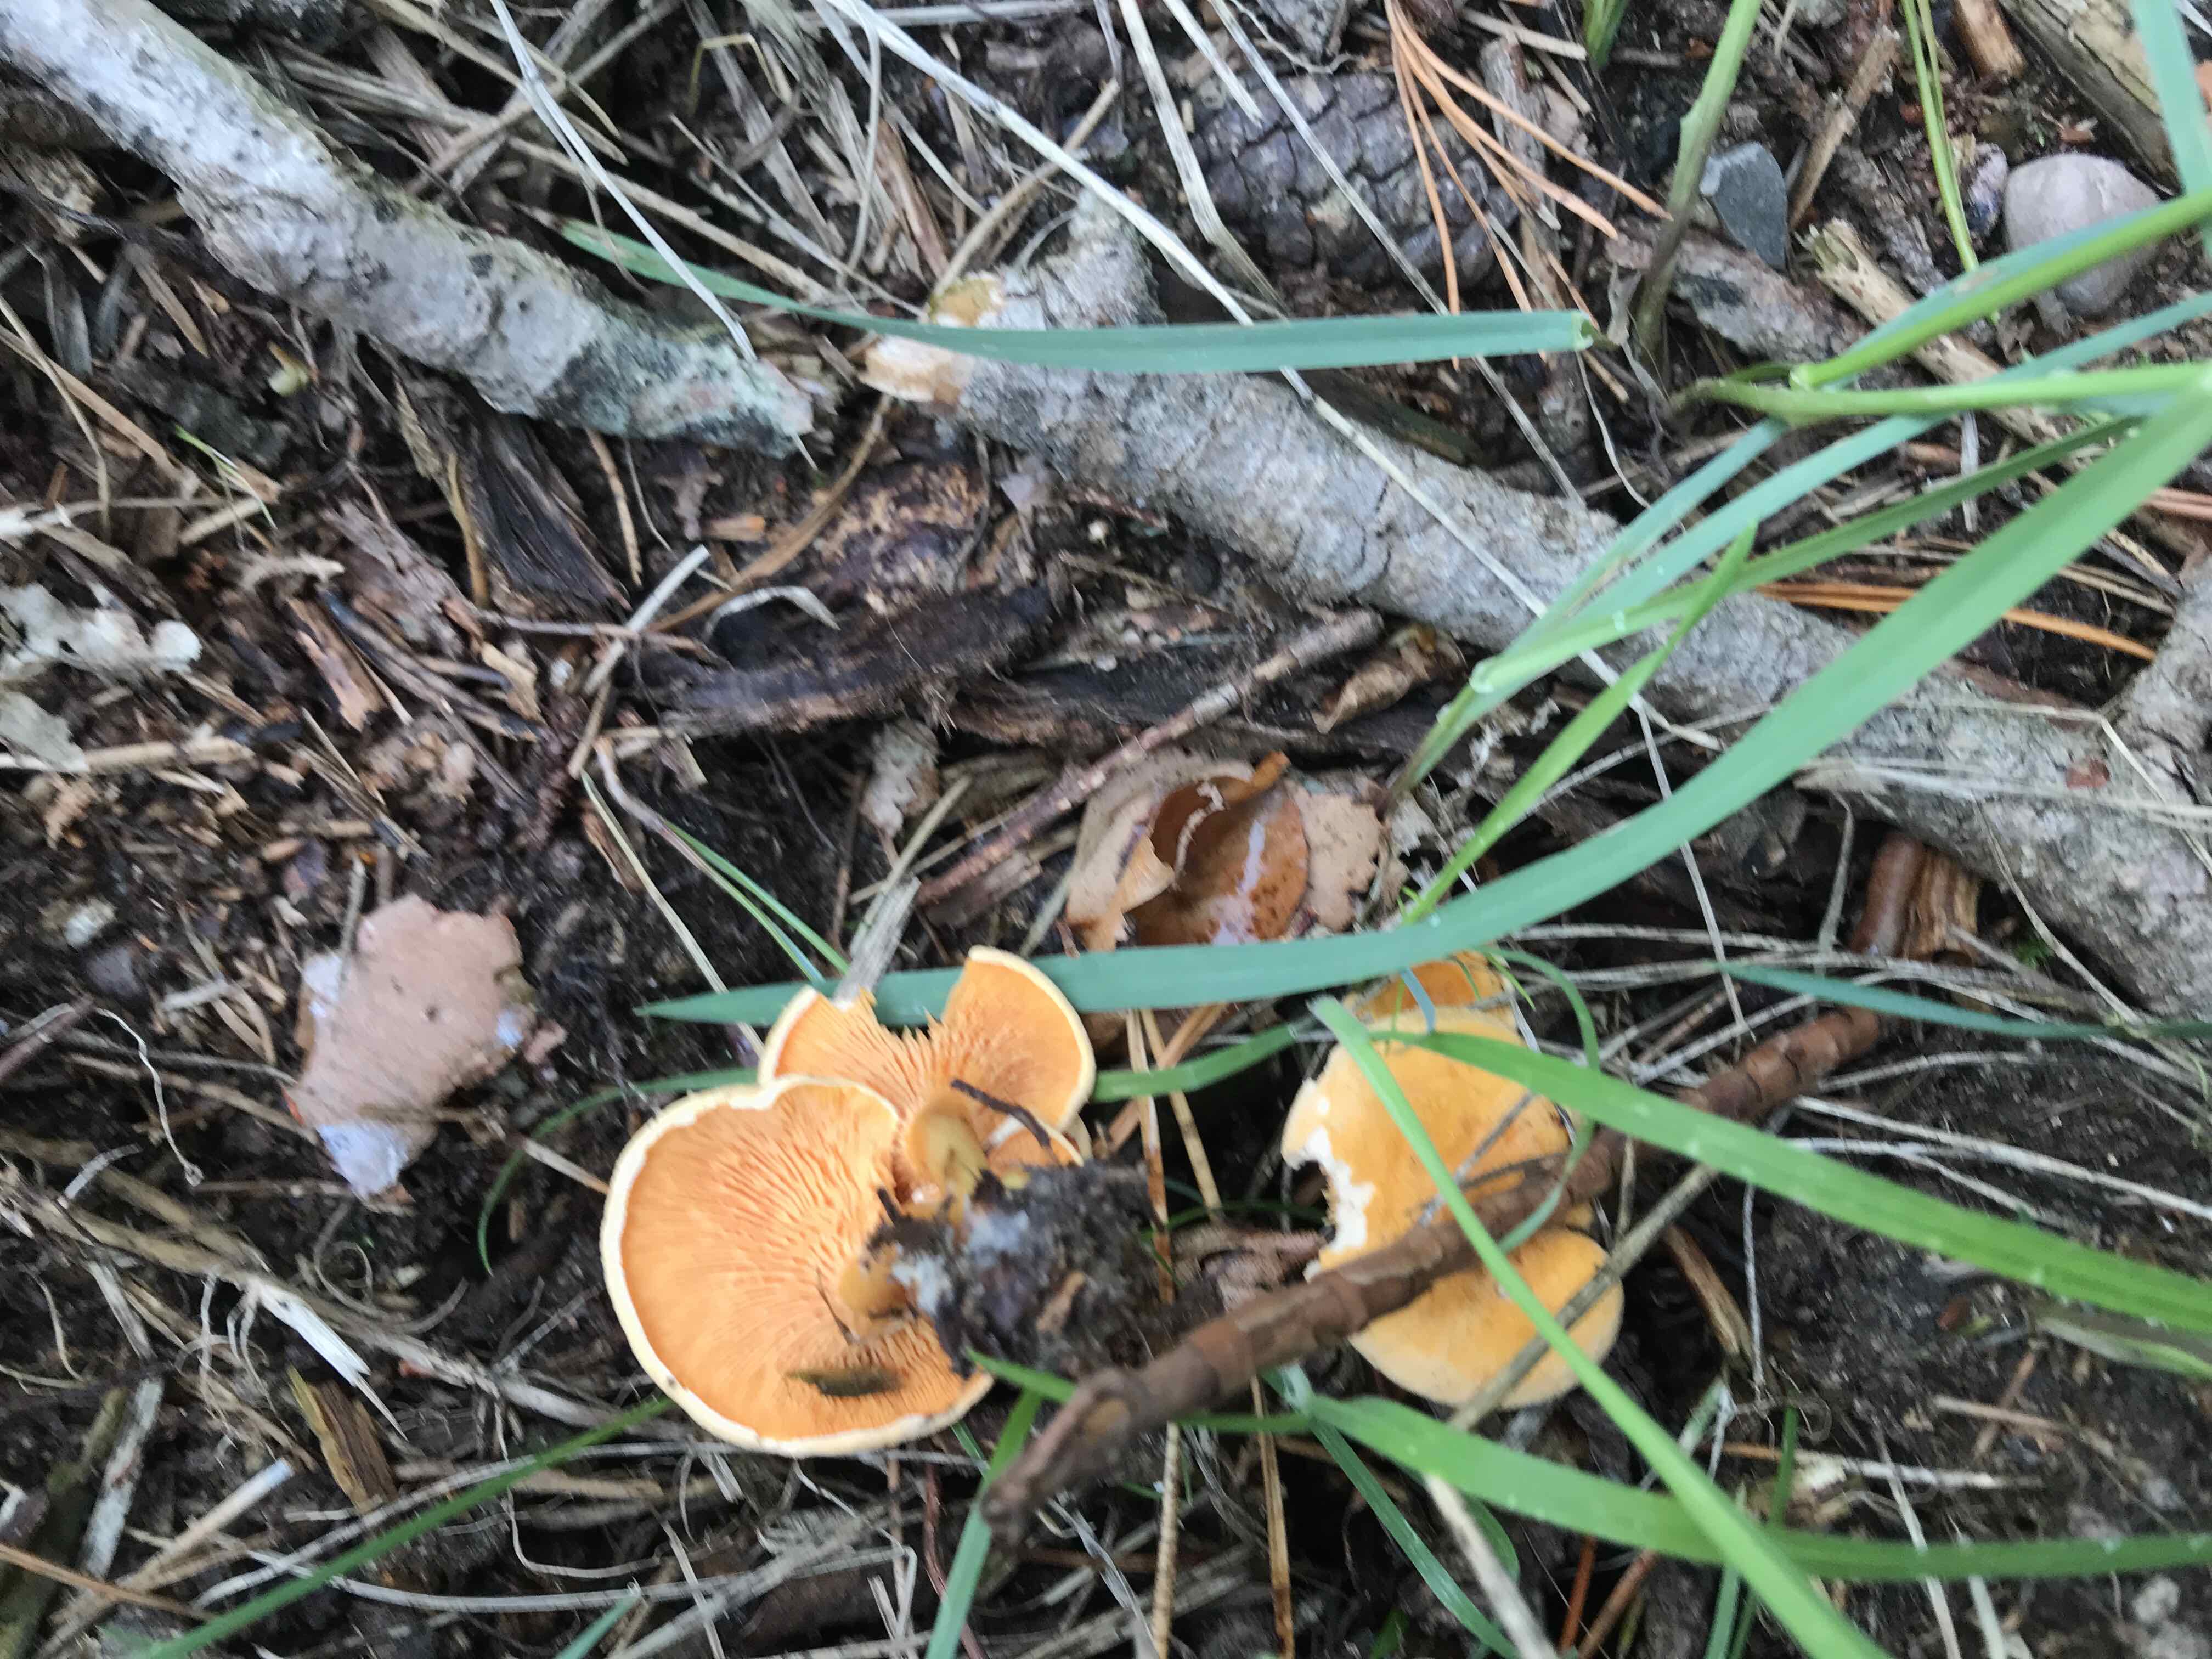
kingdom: Fungi
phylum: Basidiomycota
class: Agaricomycetes
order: Boletales
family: Hygrophoropsidaceae
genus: Hygrophoropsis
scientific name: Hygrophoropsis aurantiaca
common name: almindelig orangekantarel
